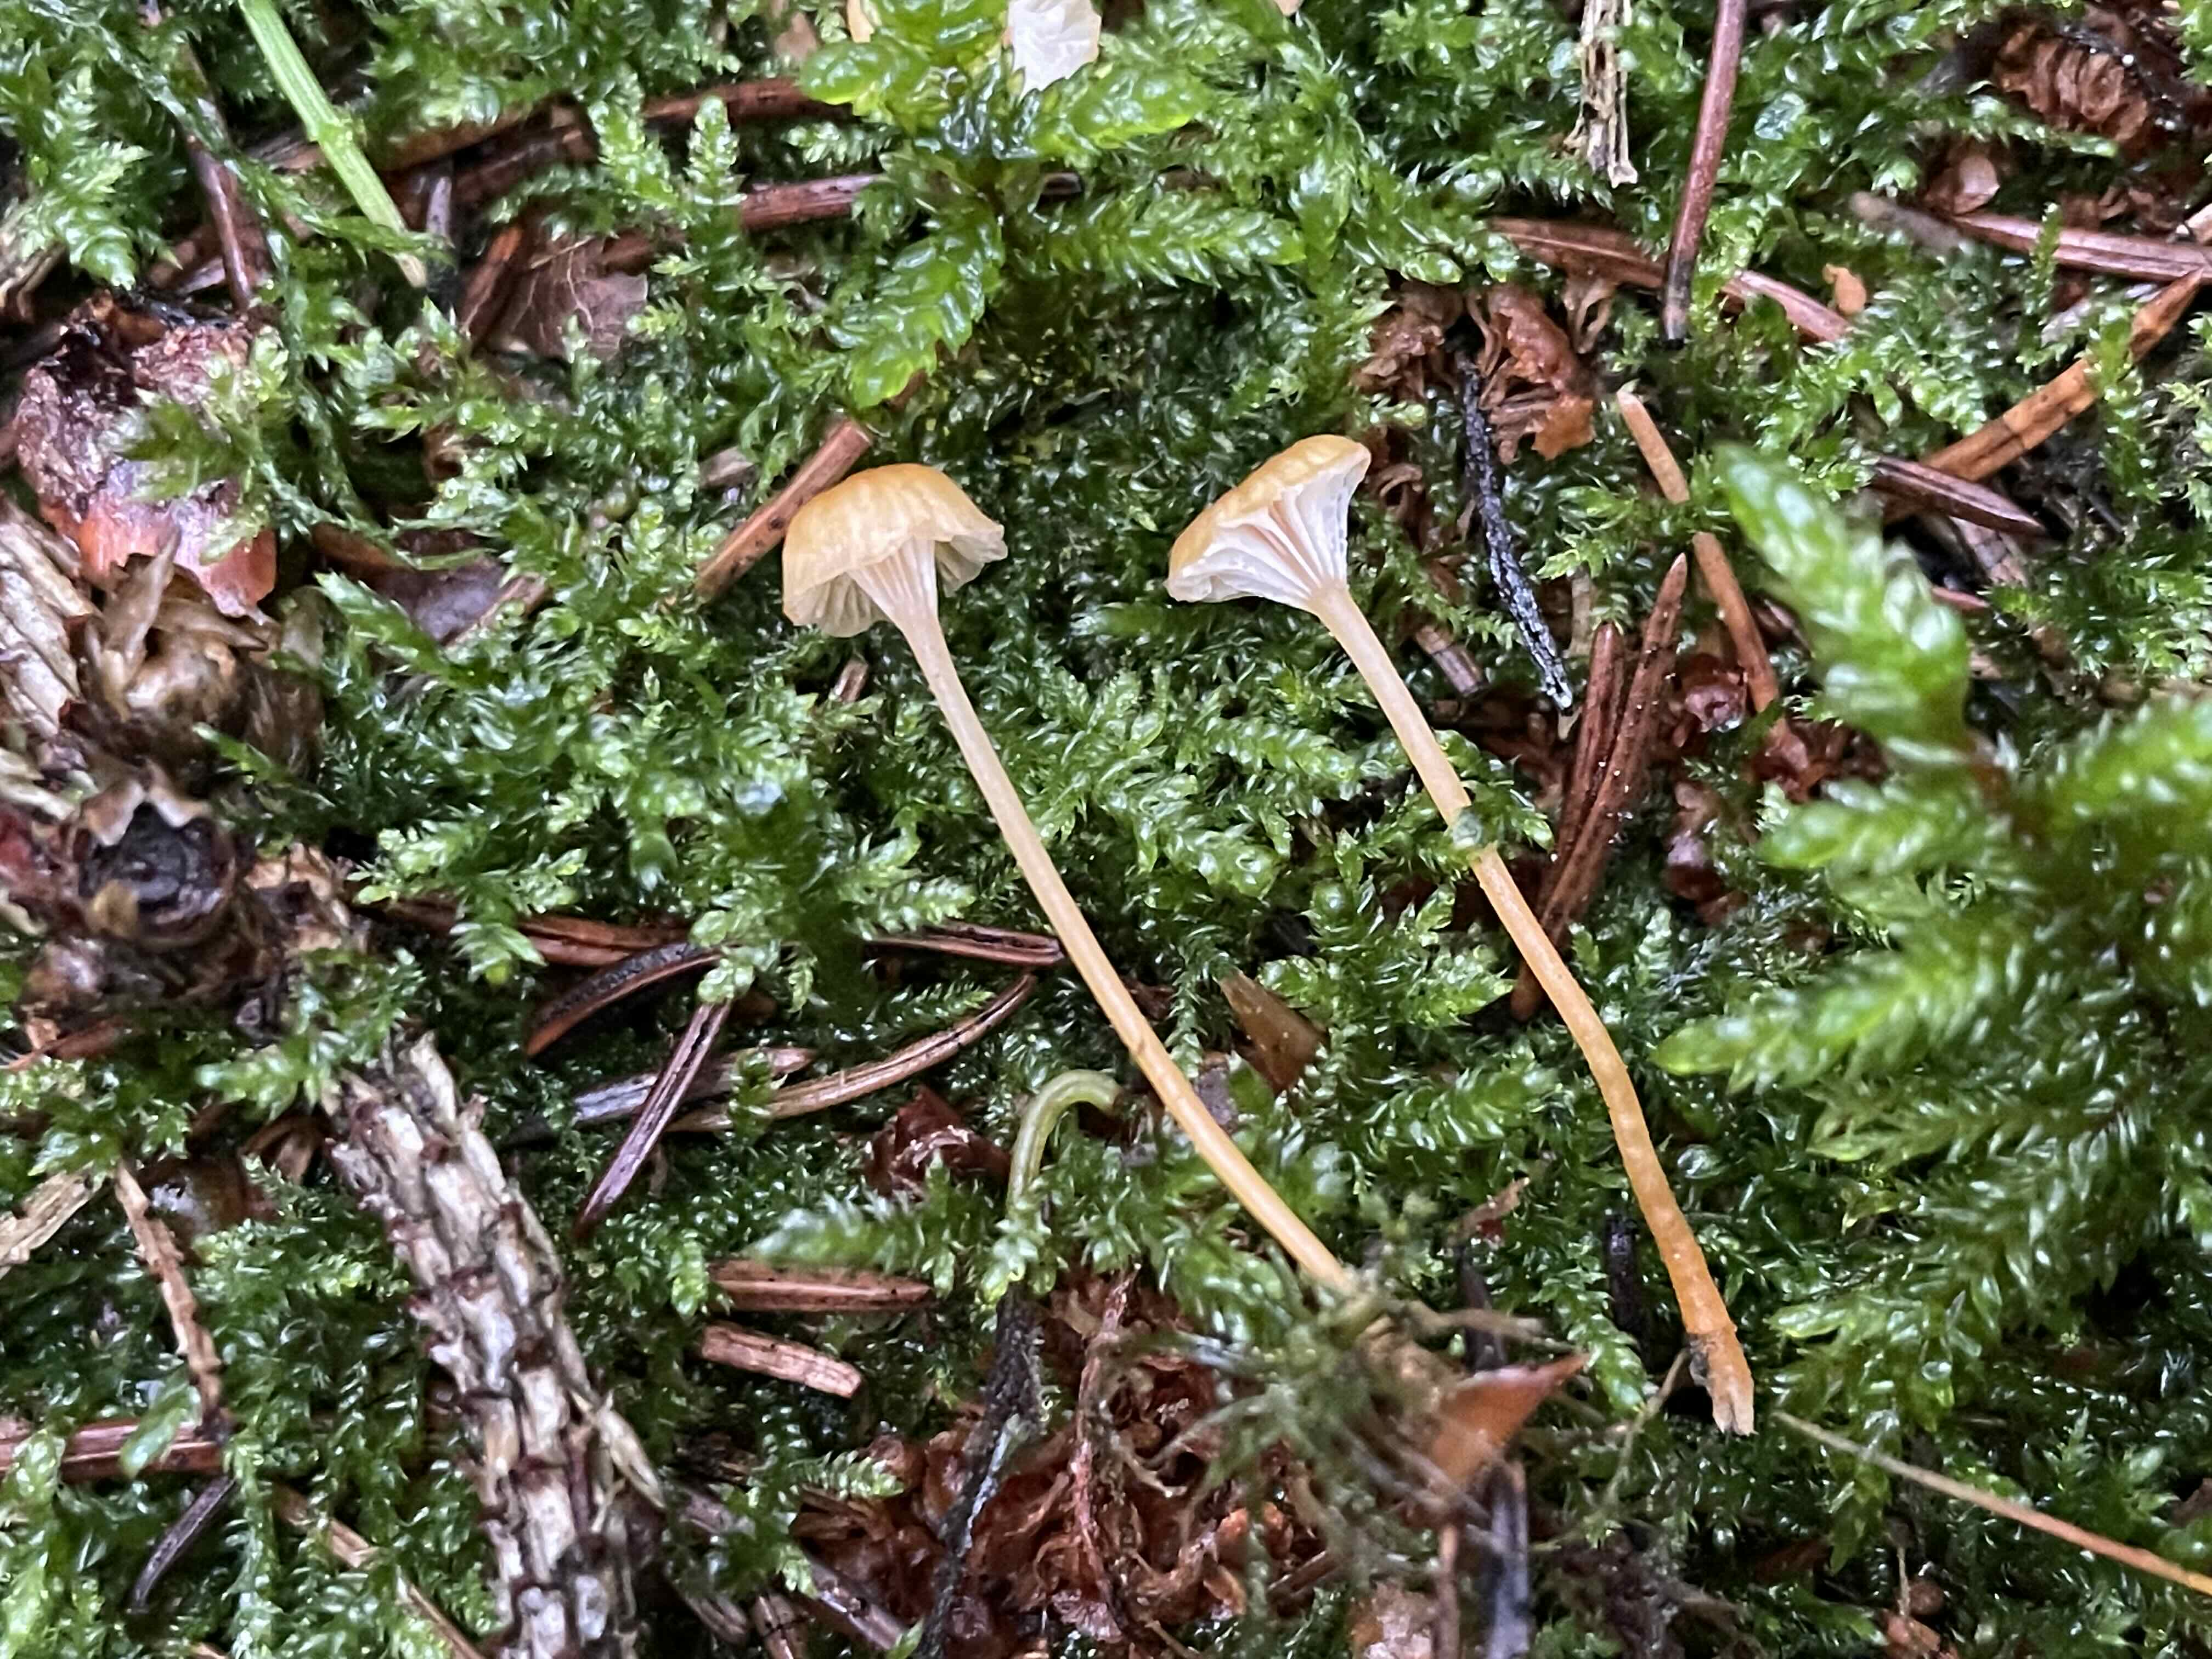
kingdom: Fungi
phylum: Basidiomycota
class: Agaricomycetes
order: Hymenochaetales
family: Rickenellaceae
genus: Rickenella
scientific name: Rickenella fibula
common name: orange mosnavlehat
